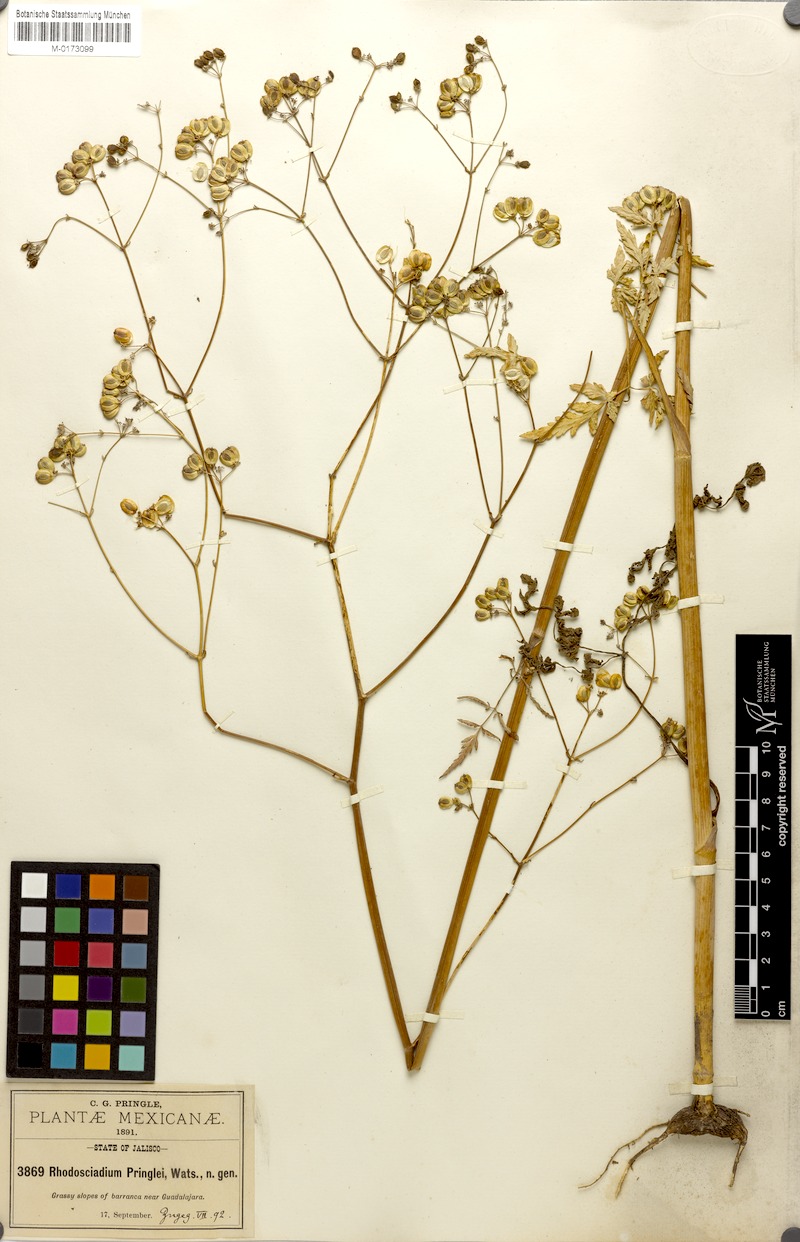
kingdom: Plantae
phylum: Tracheophyta
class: Magnoliopsida
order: Apiales
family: Apiaceae
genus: Rhodosciadium
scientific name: Rhodosciadium pringlei
